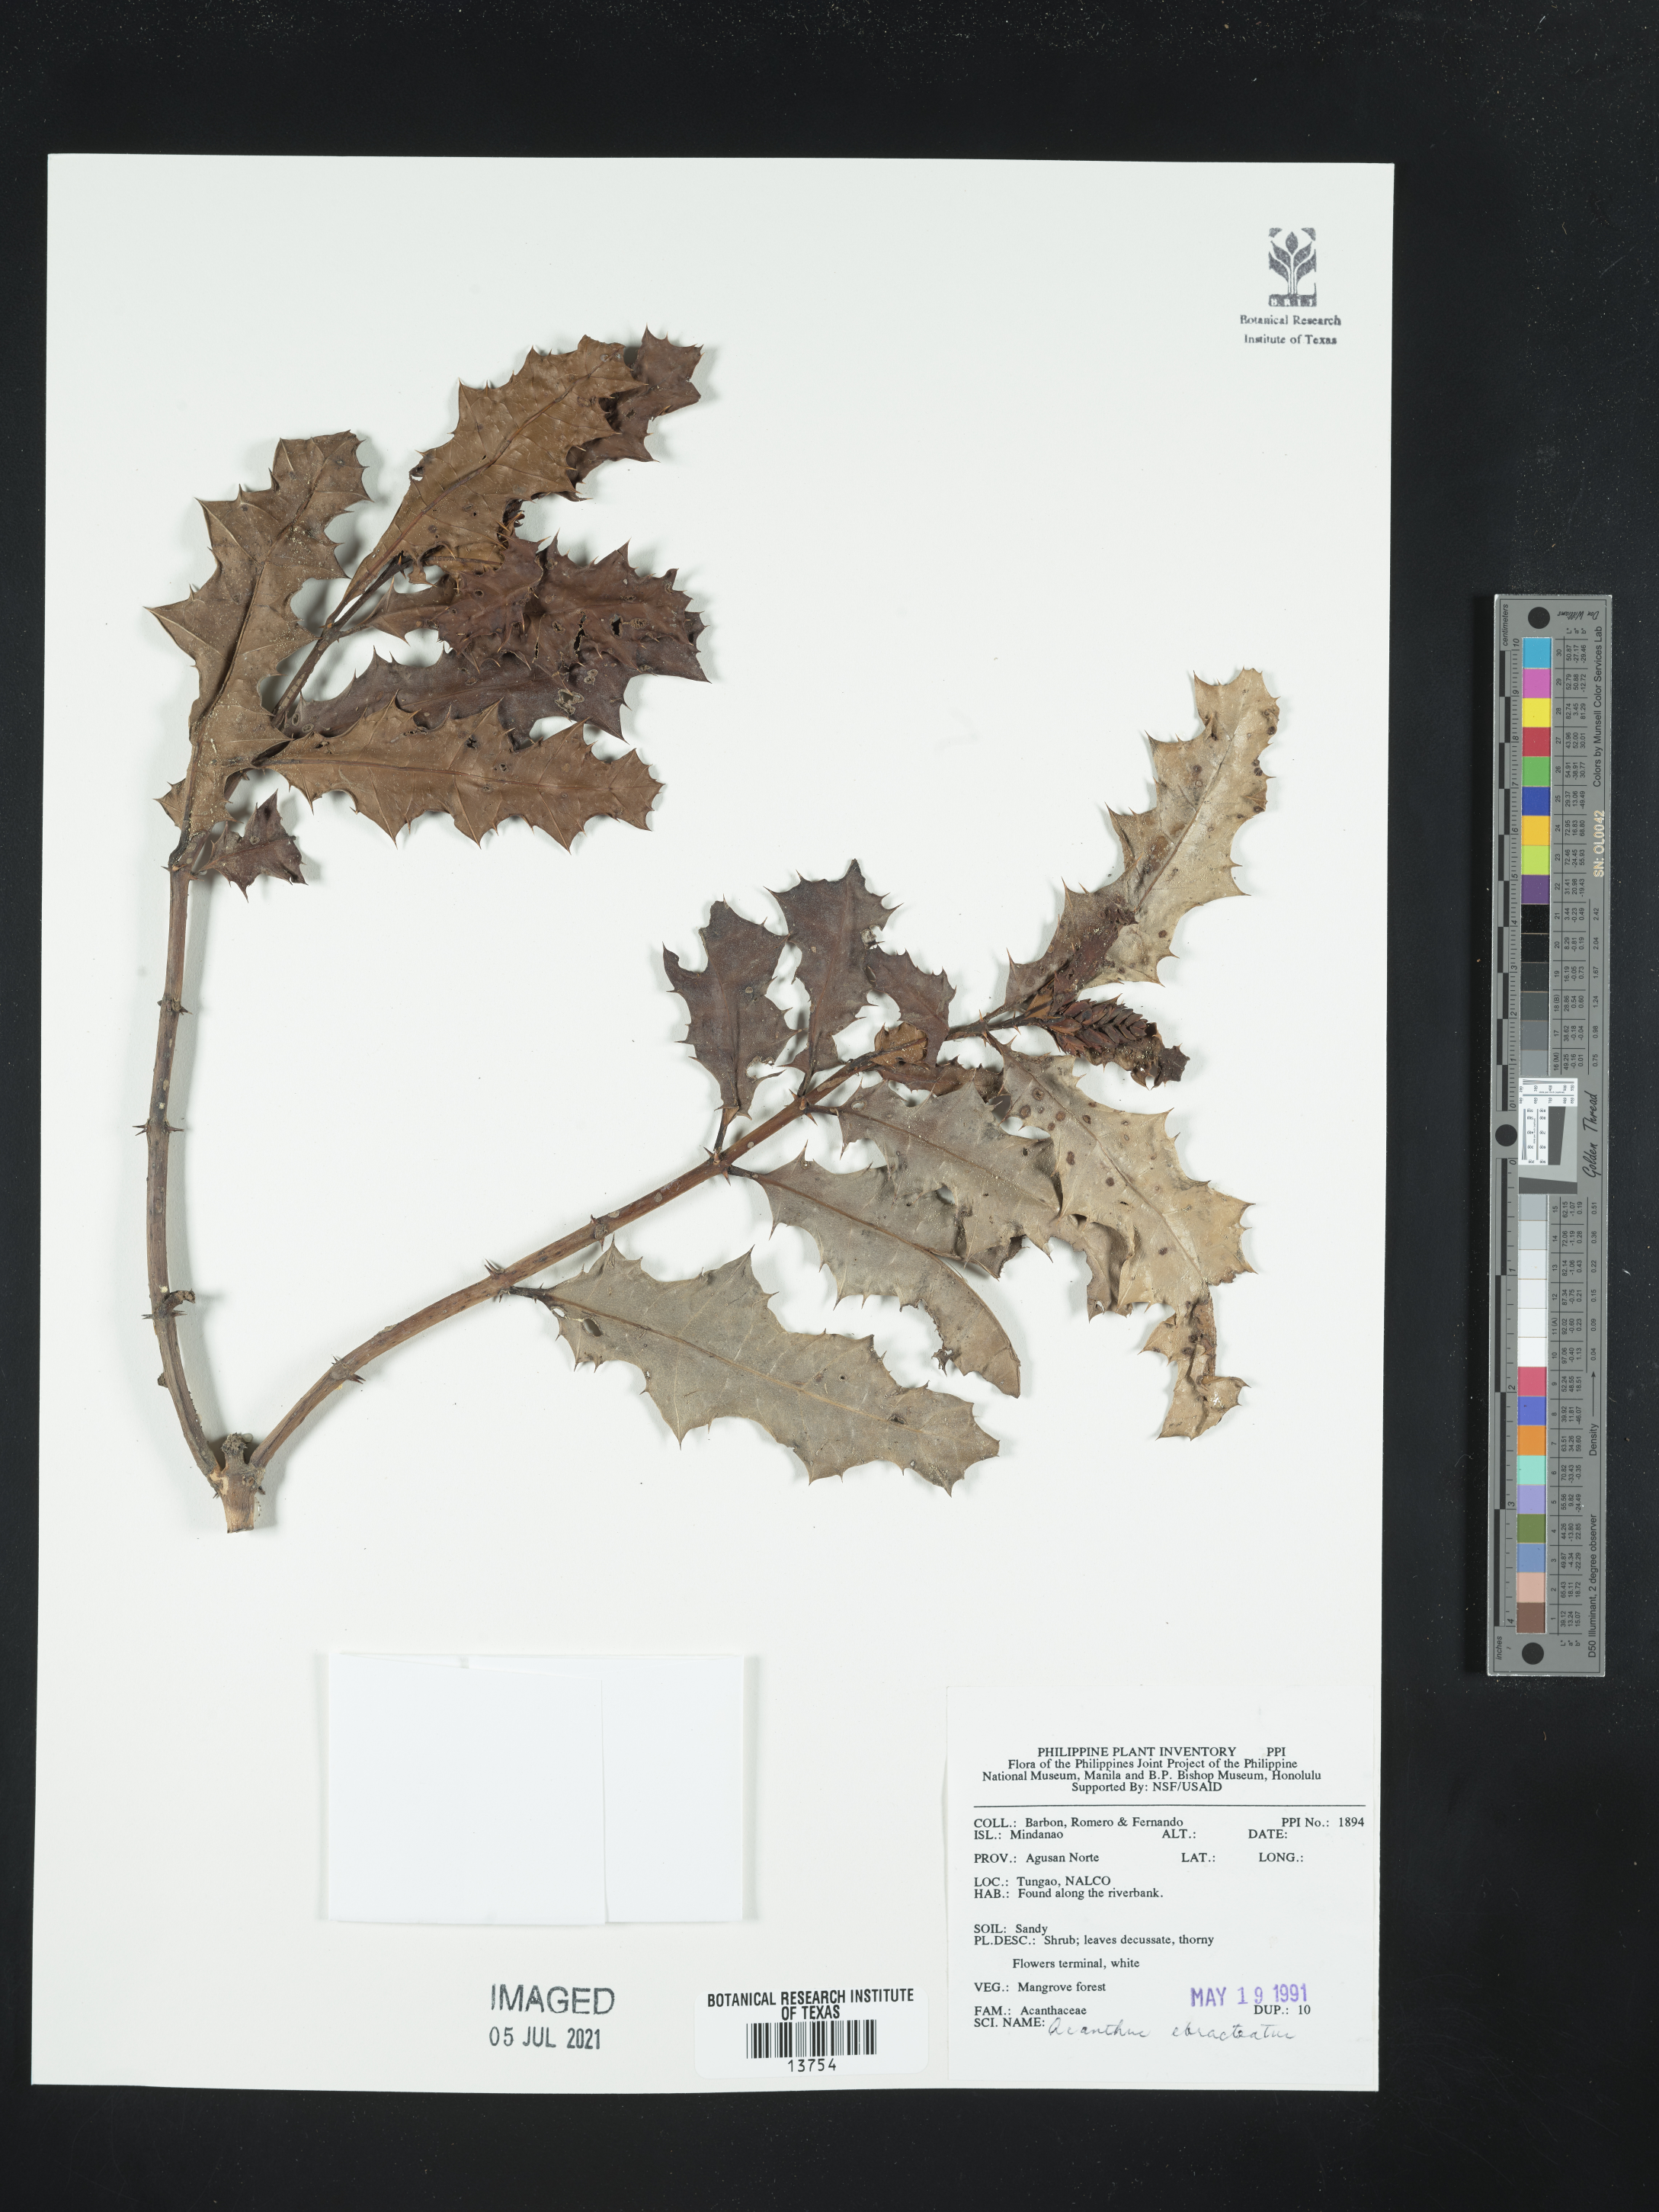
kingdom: Plantae
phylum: Tracheophyta
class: Magnoliopsida
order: Lamiales
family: Acanthaceae
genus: Acanthus
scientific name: Acanthus ebracteatus
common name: Acanthus
